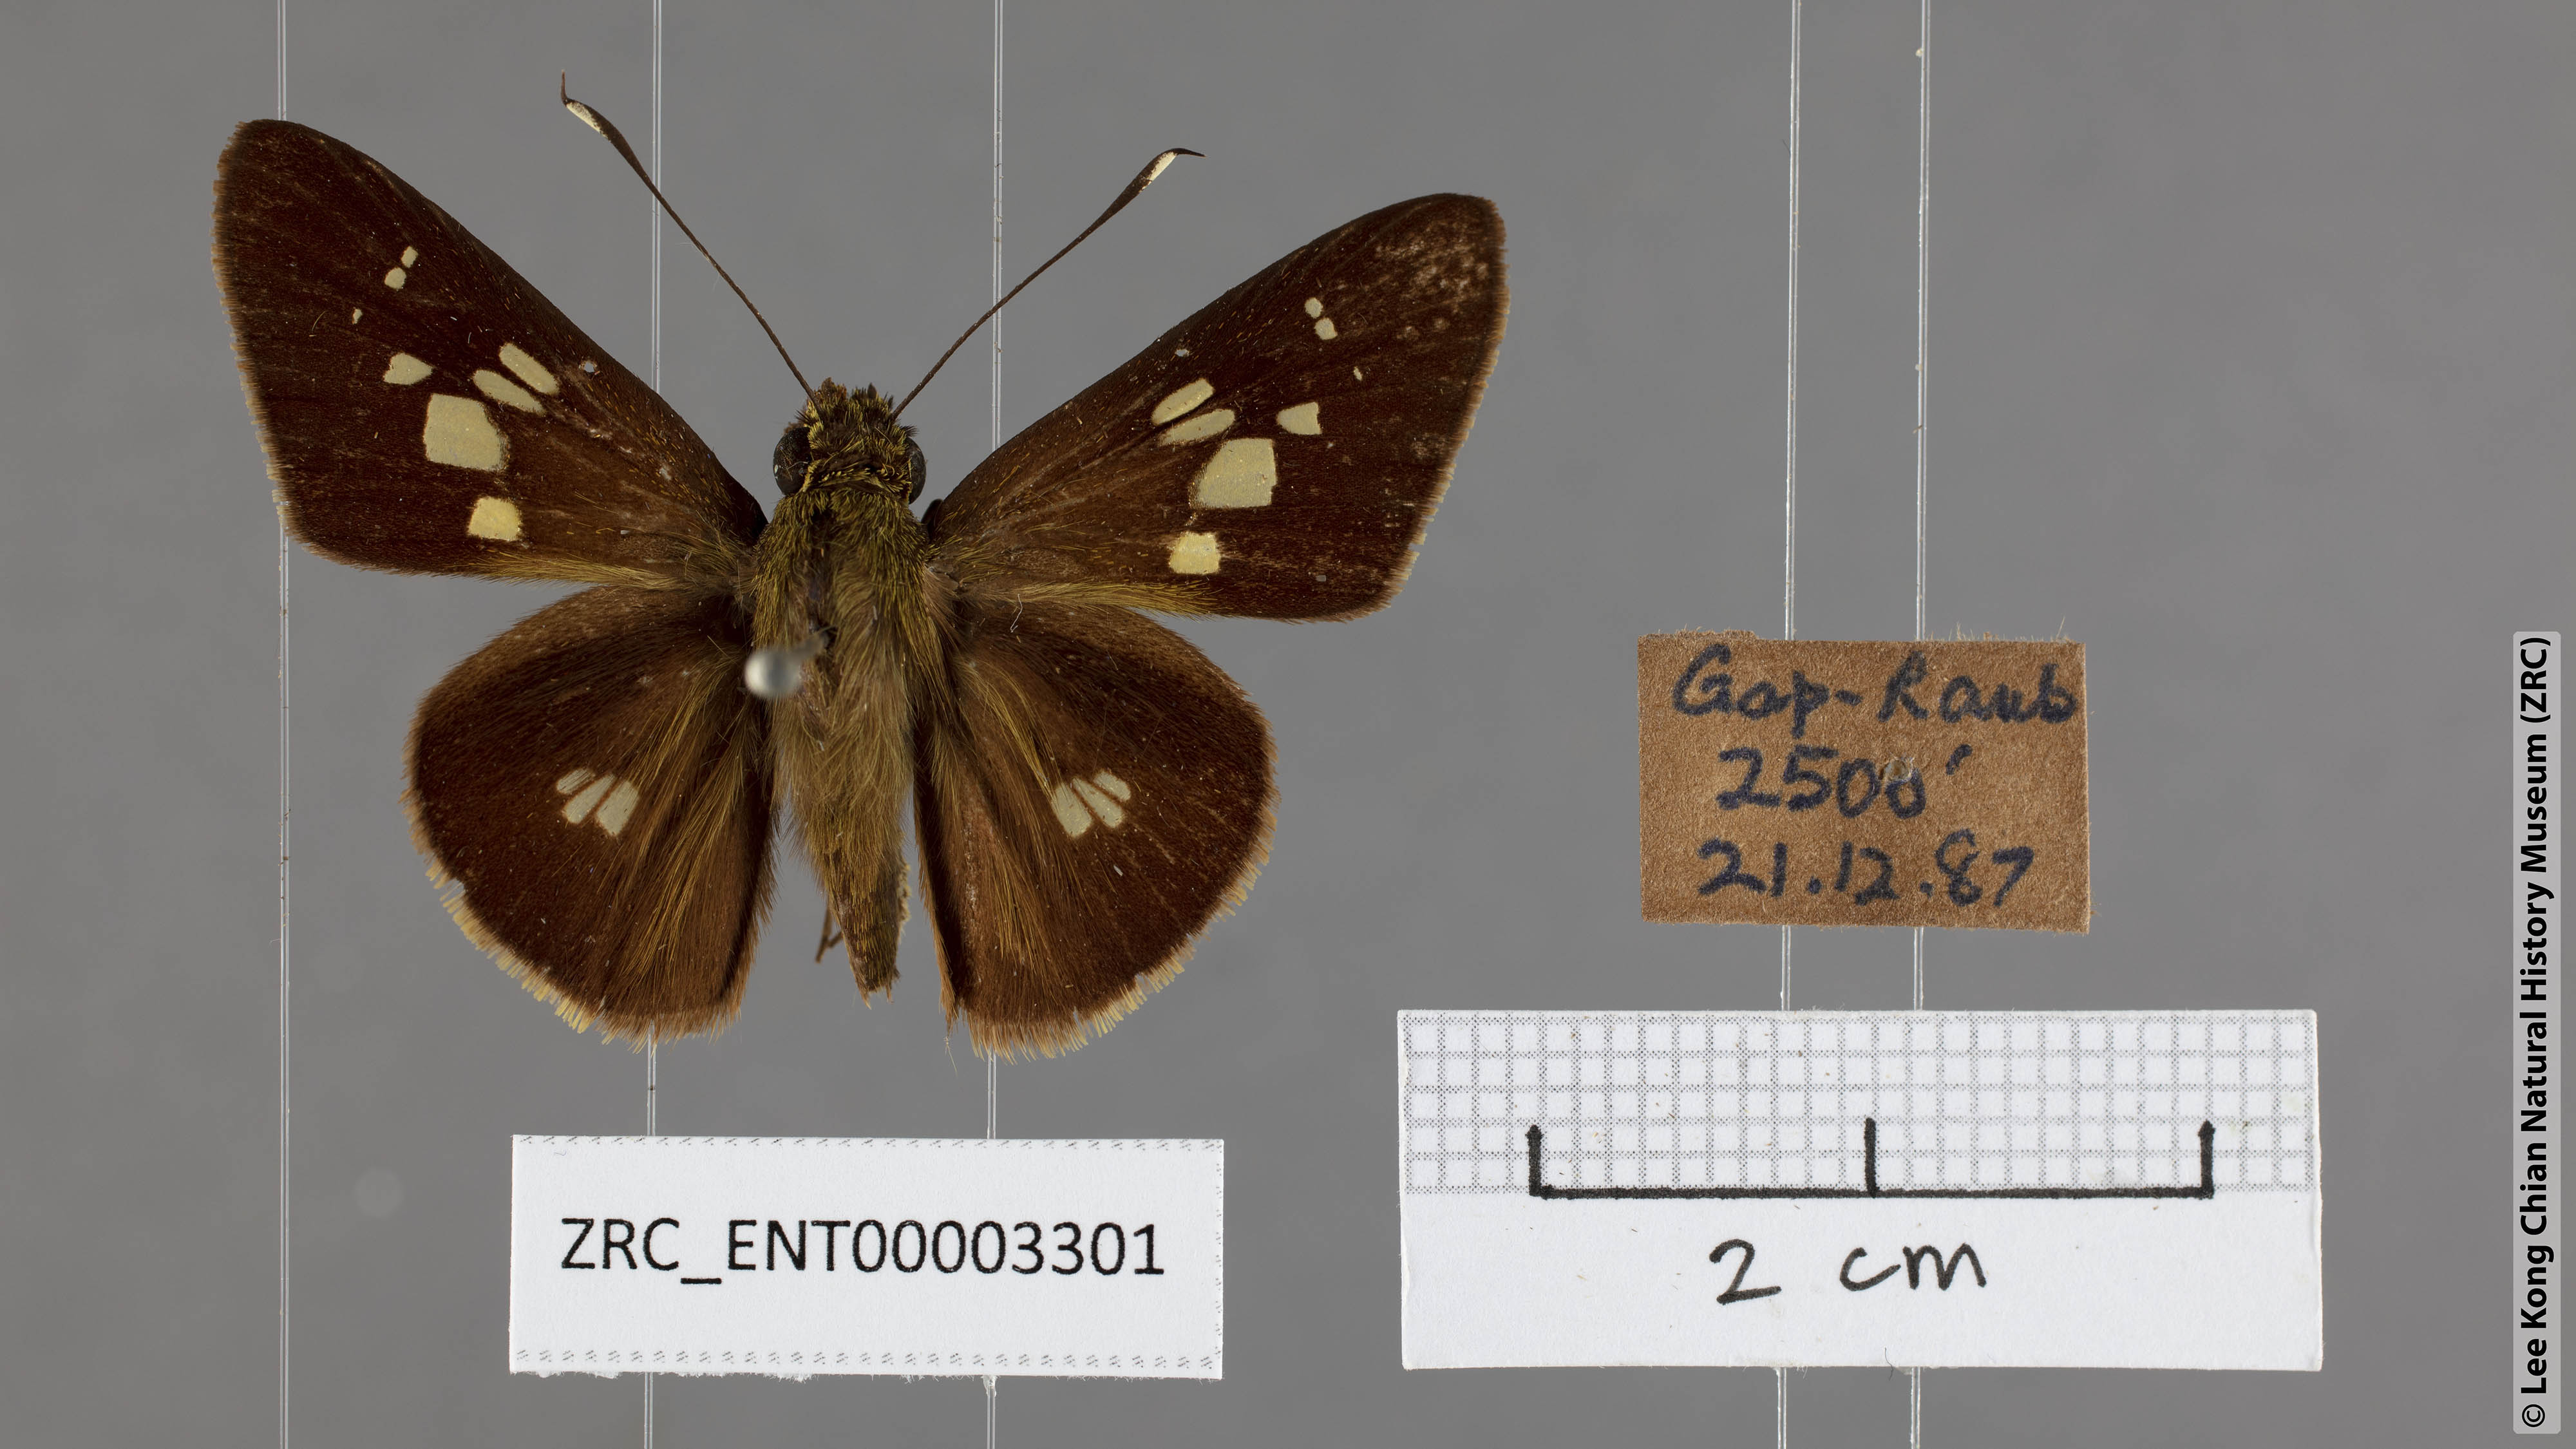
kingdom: Animalia
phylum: Arthropoda
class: Insecta
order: Lepidoptera
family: Hesperiidae
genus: Isma
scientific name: Isma
